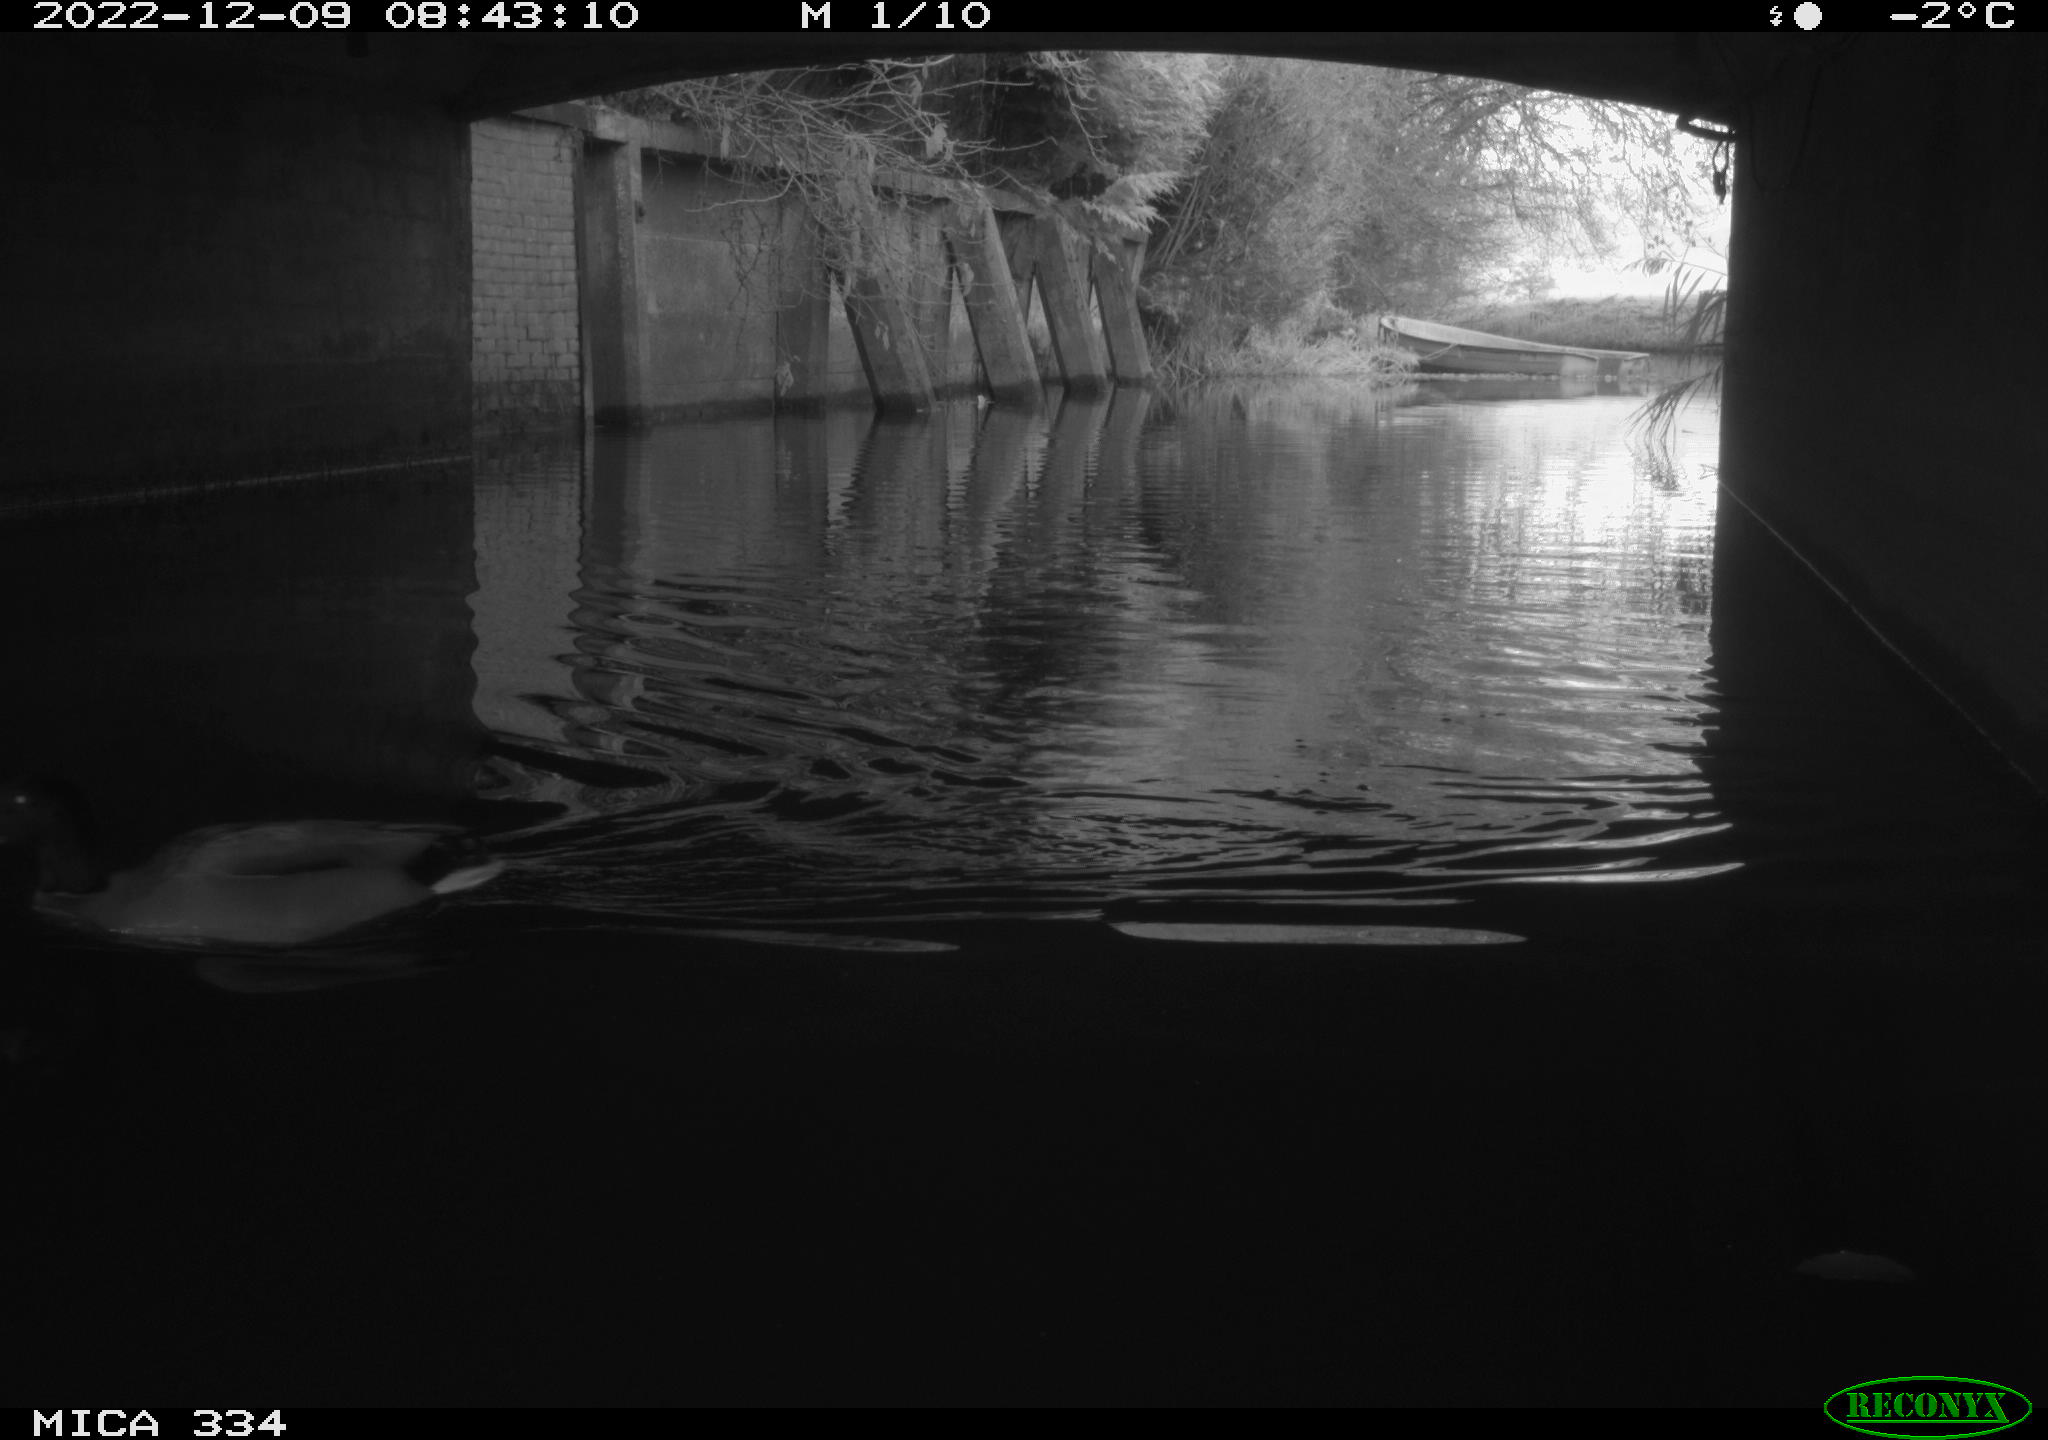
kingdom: Animalia
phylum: Chordata
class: Aves
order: Anseriformes
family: Anatidae
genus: Anas
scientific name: Anas platyrhynchos
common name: Mallard
